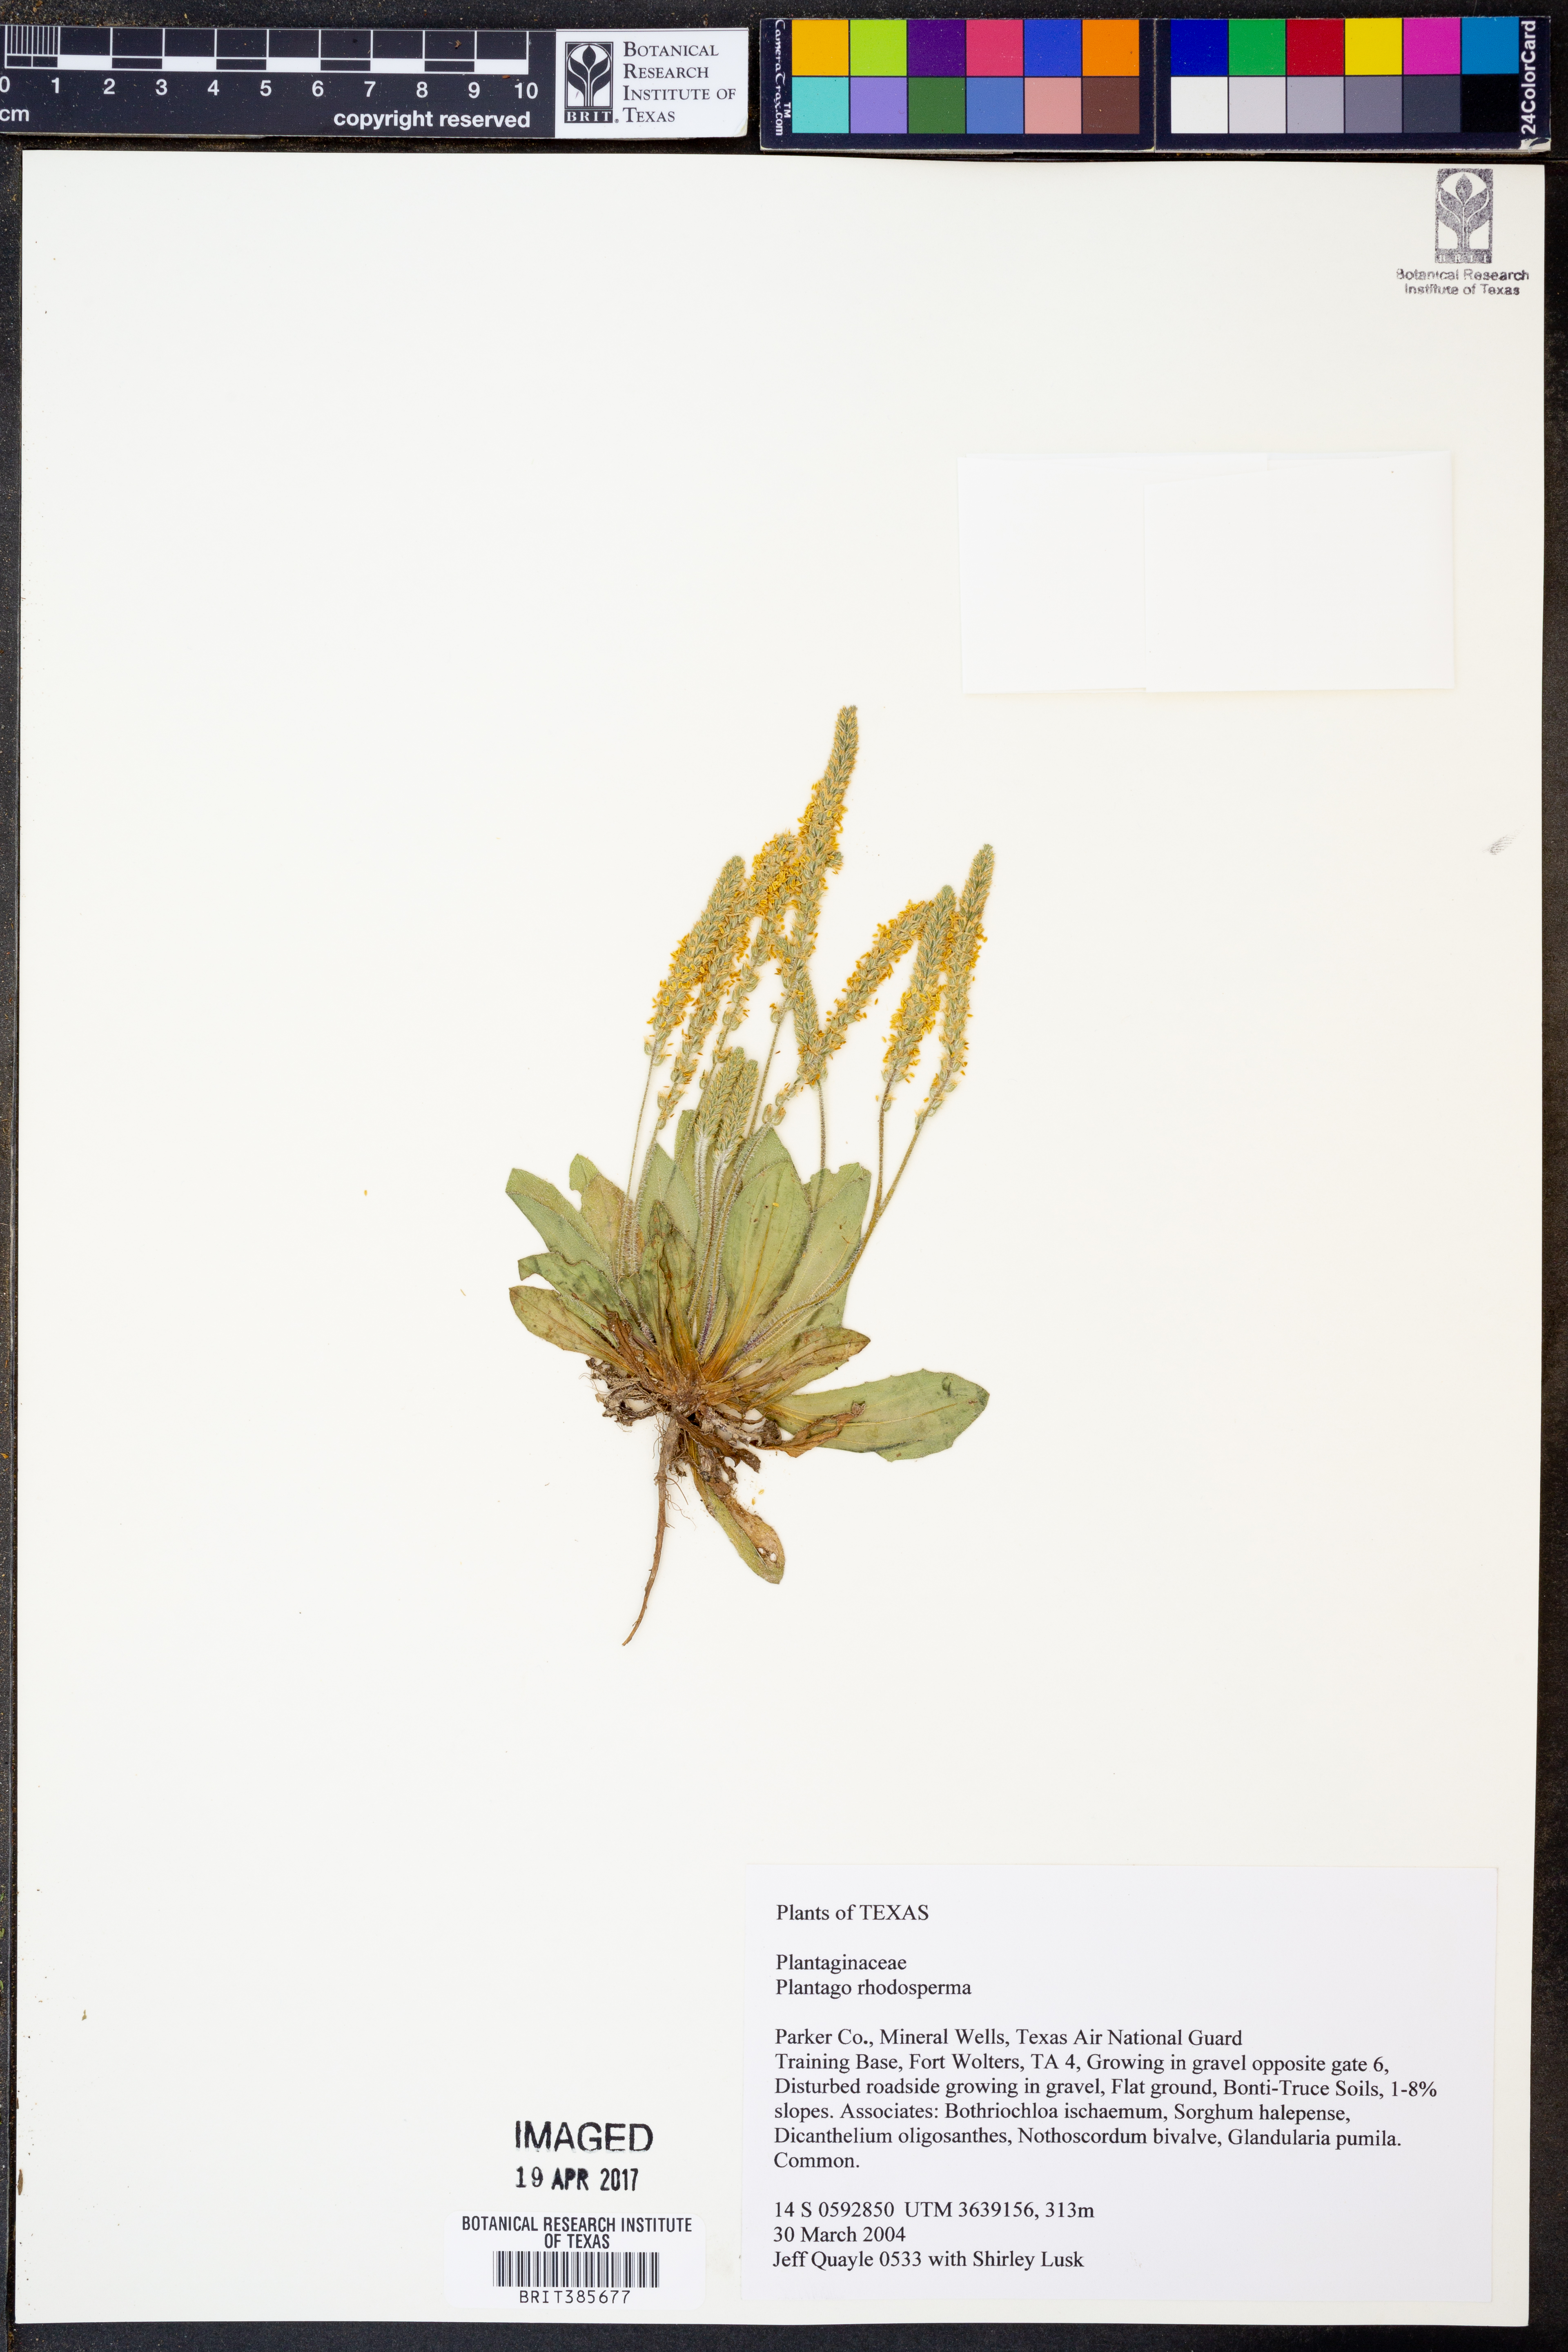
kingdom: Plantae
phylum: Tracheophyta
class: Magnoliopsida
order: Lamiales
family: Plantaginaceae
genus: Plantago
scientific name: Plantago rhodosperma
